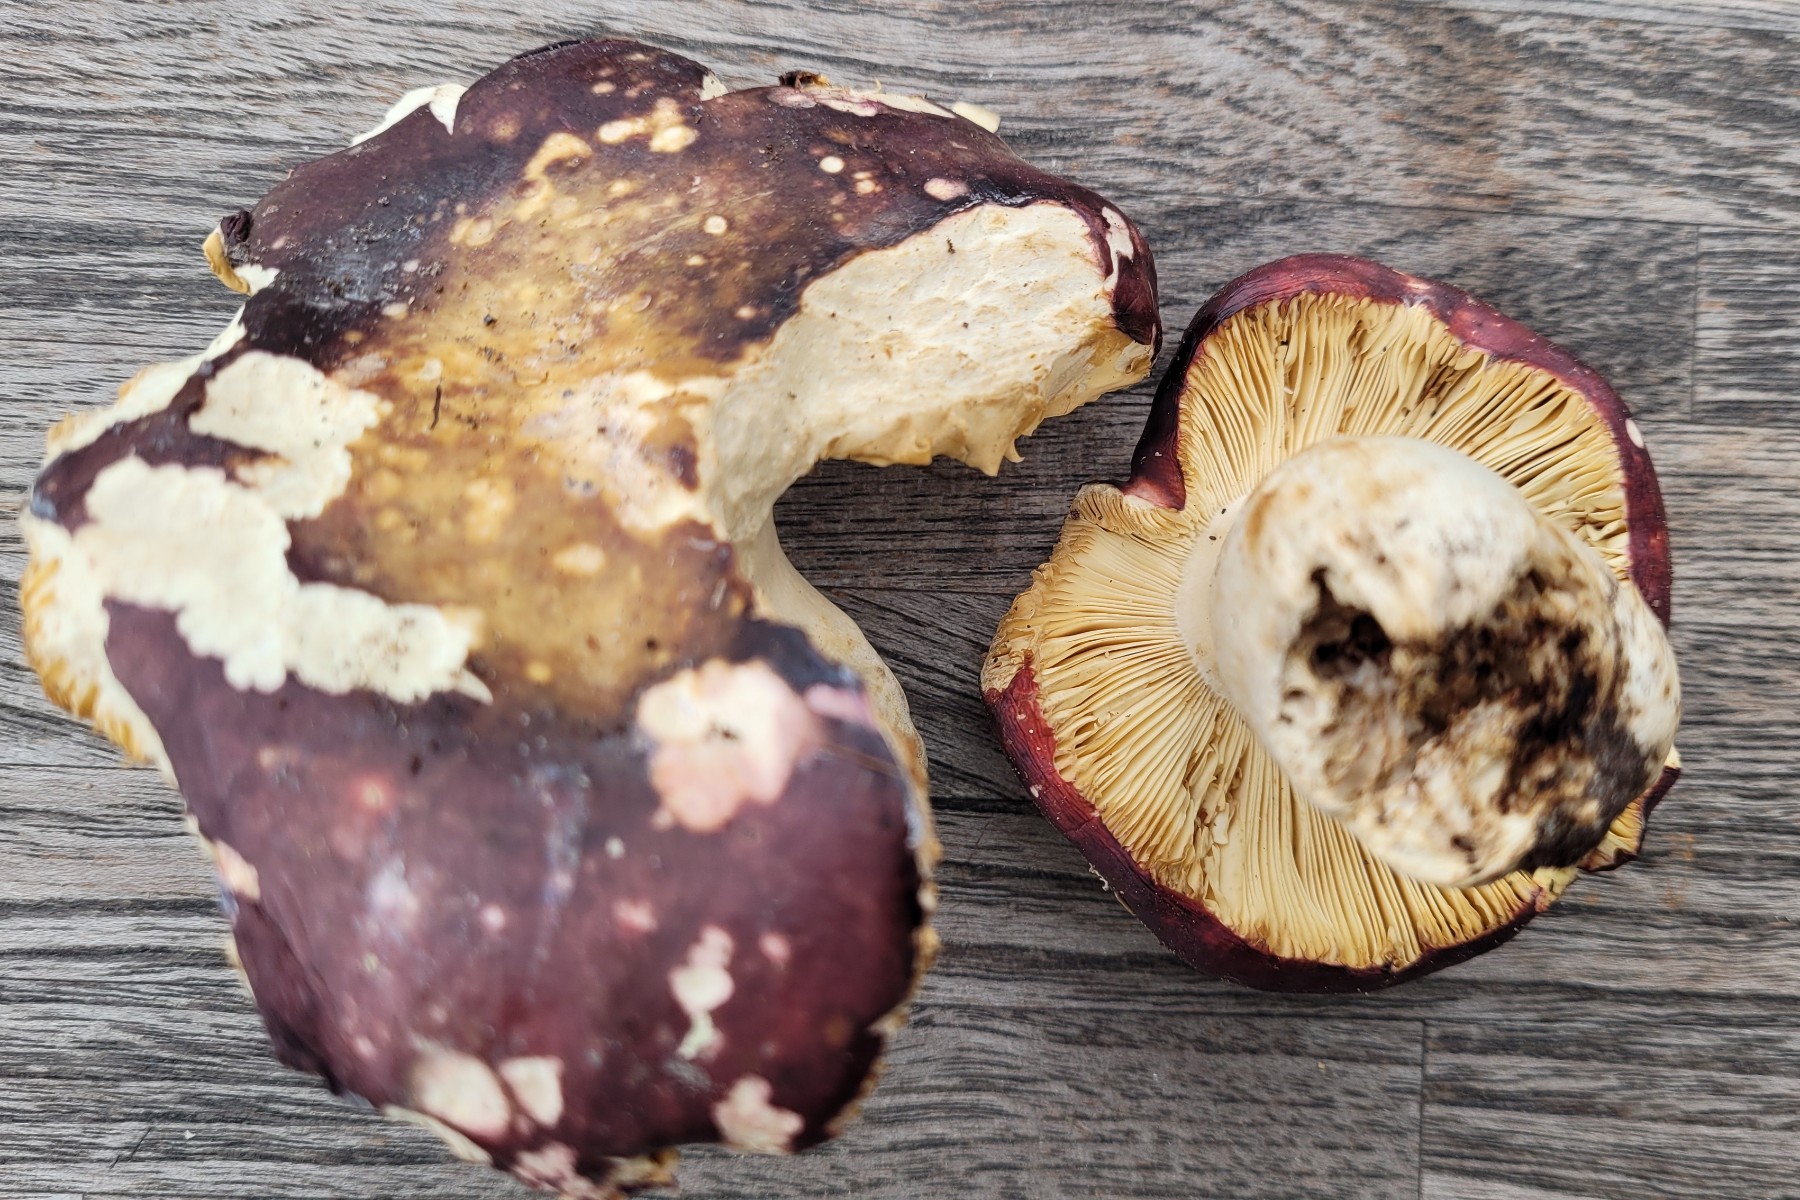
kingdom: Fungi
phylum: Basidiomycota
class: Agaricomycetes
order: Russulales
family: Russulaceae
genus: Russula
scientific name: Russula romellii
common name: romells skørhat
